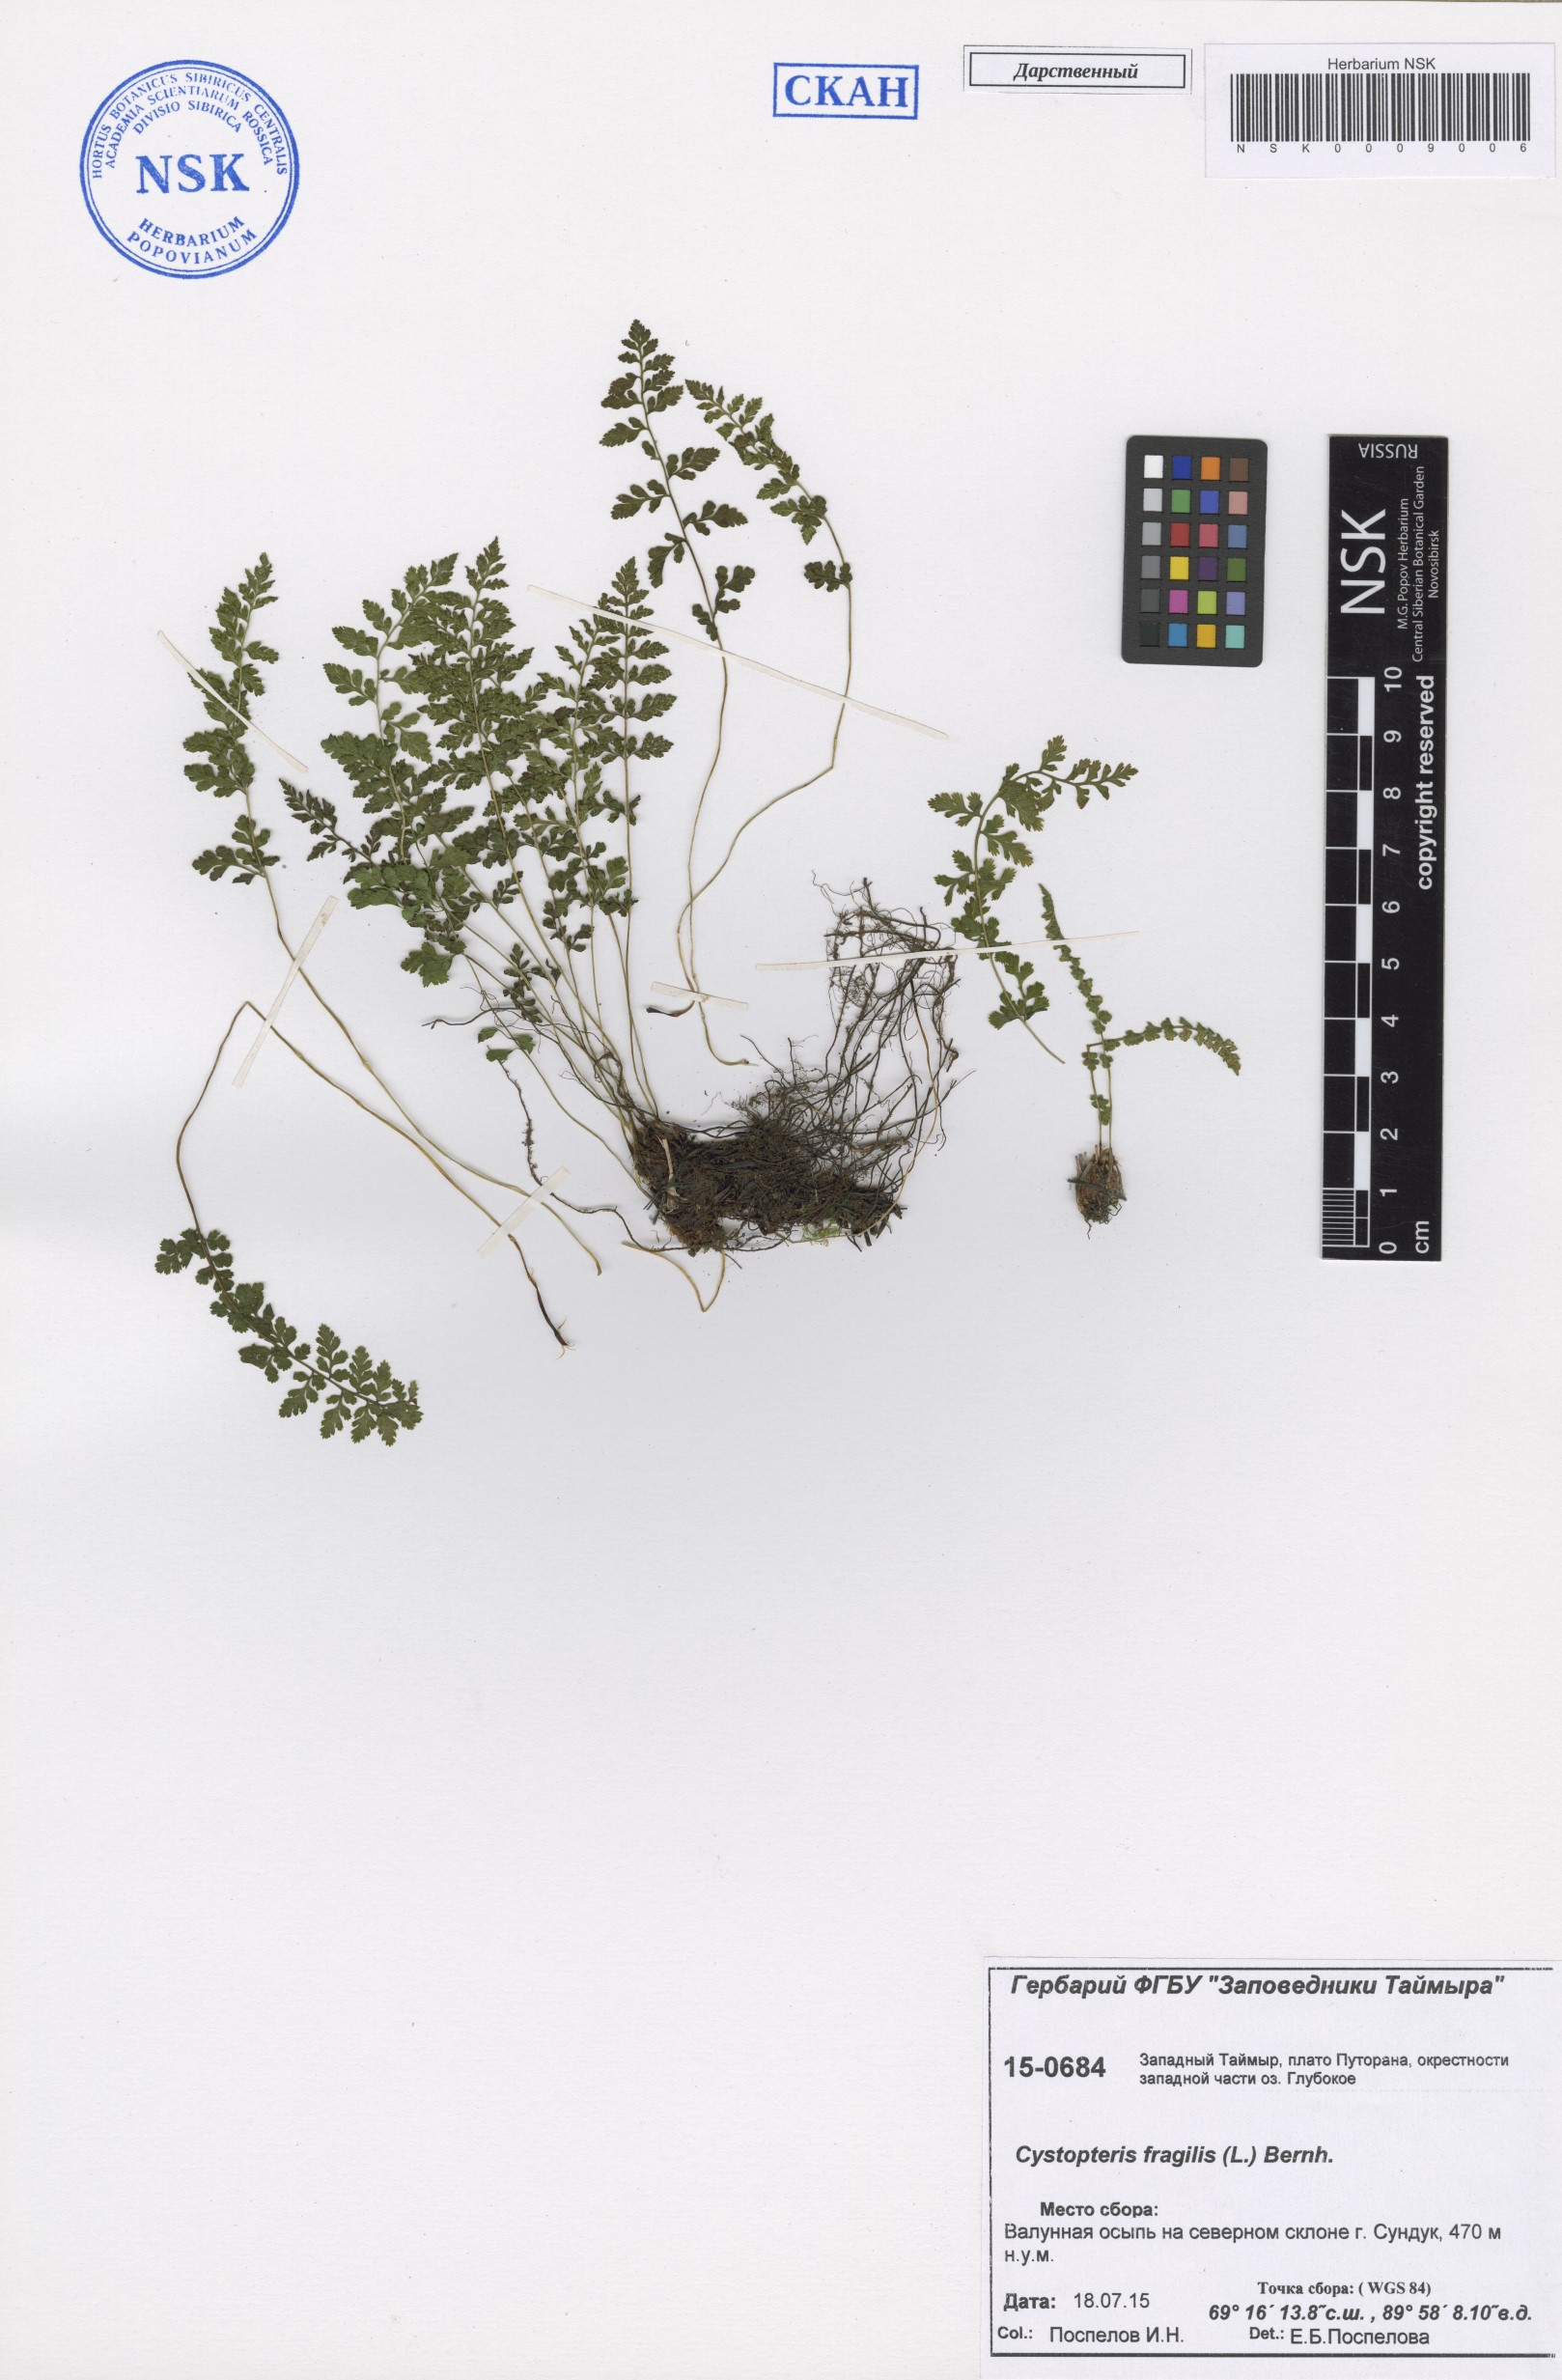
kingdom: Plantae
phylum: Tracheophyta
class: Polypodiopsida
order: Polypodiales
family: Cystopteridaceae
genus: Cystopteris
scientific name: Cystopteris fragilis
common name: Brittle bladder fern
